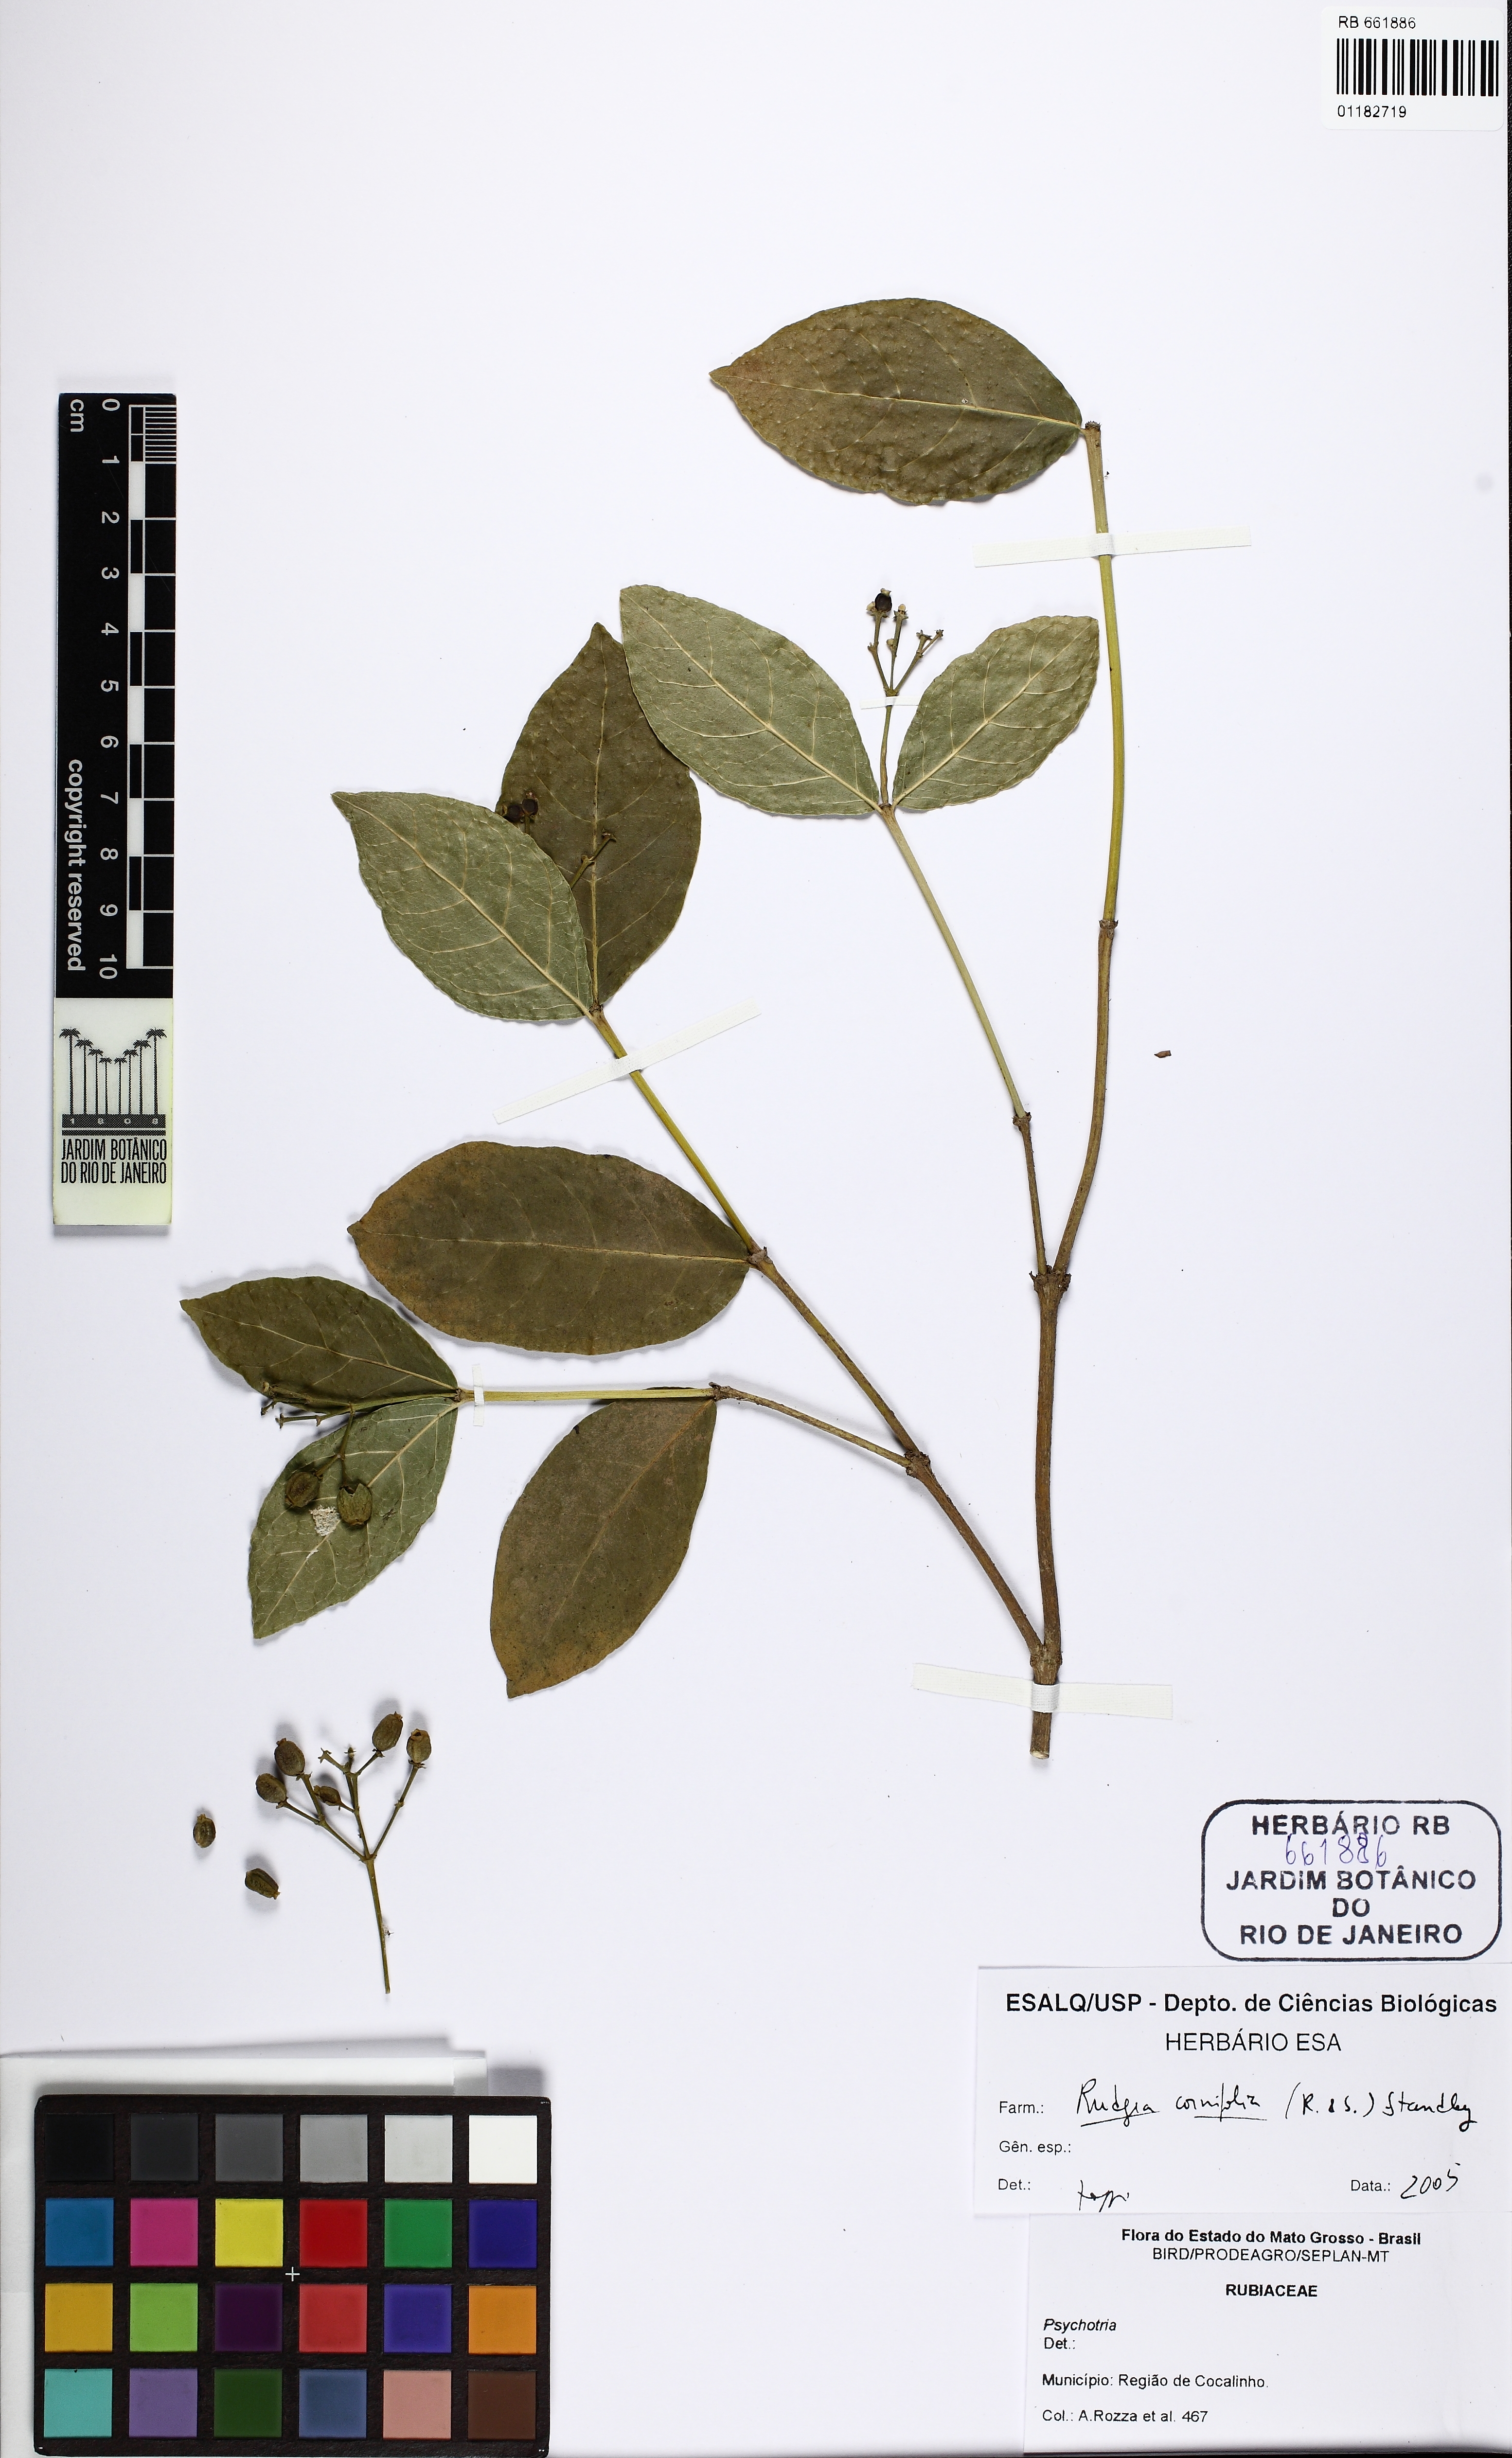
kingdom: Plantae
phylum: Tracheophyta
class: Magnoliopsida
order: Gentianales
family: Rubiaceae
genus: Rudgea
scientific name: Rudgea cornifolia
